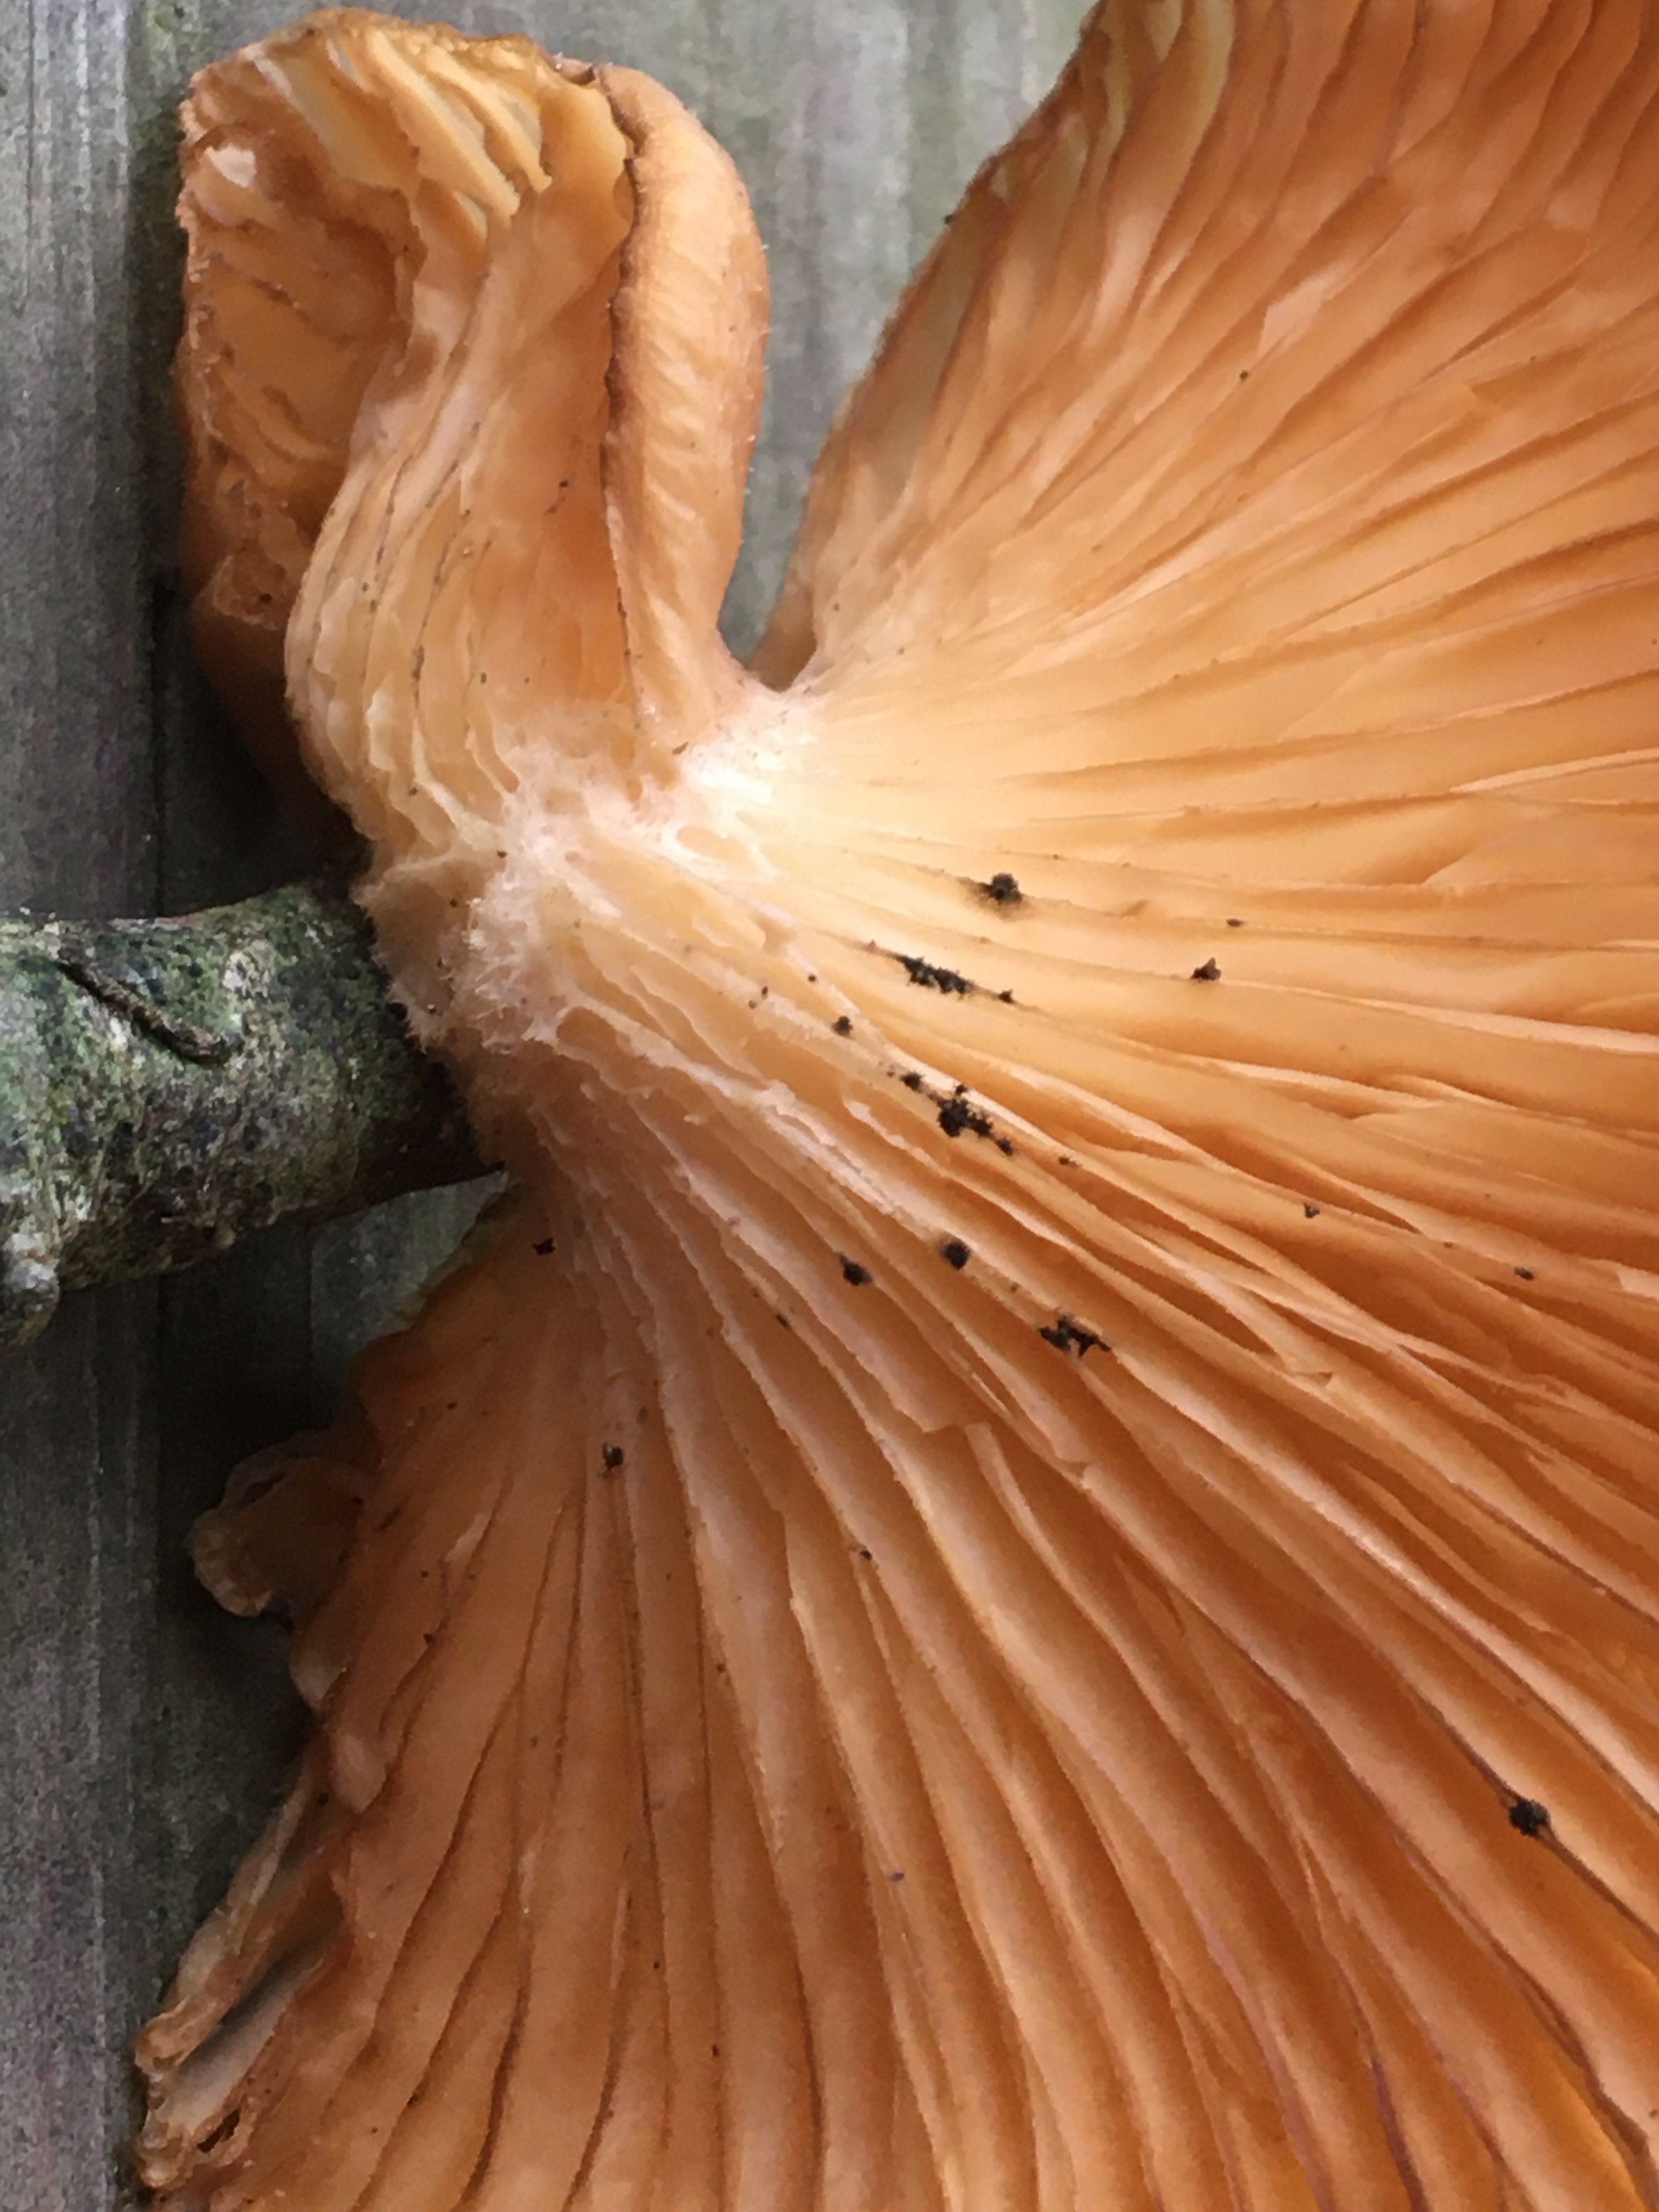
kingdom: Fungi
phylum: Basidiomycota
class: Agaricomycetes
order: Agaricales
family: Pleurotaceae
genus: Pleurotus
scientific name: Pleurotus ostreatus
